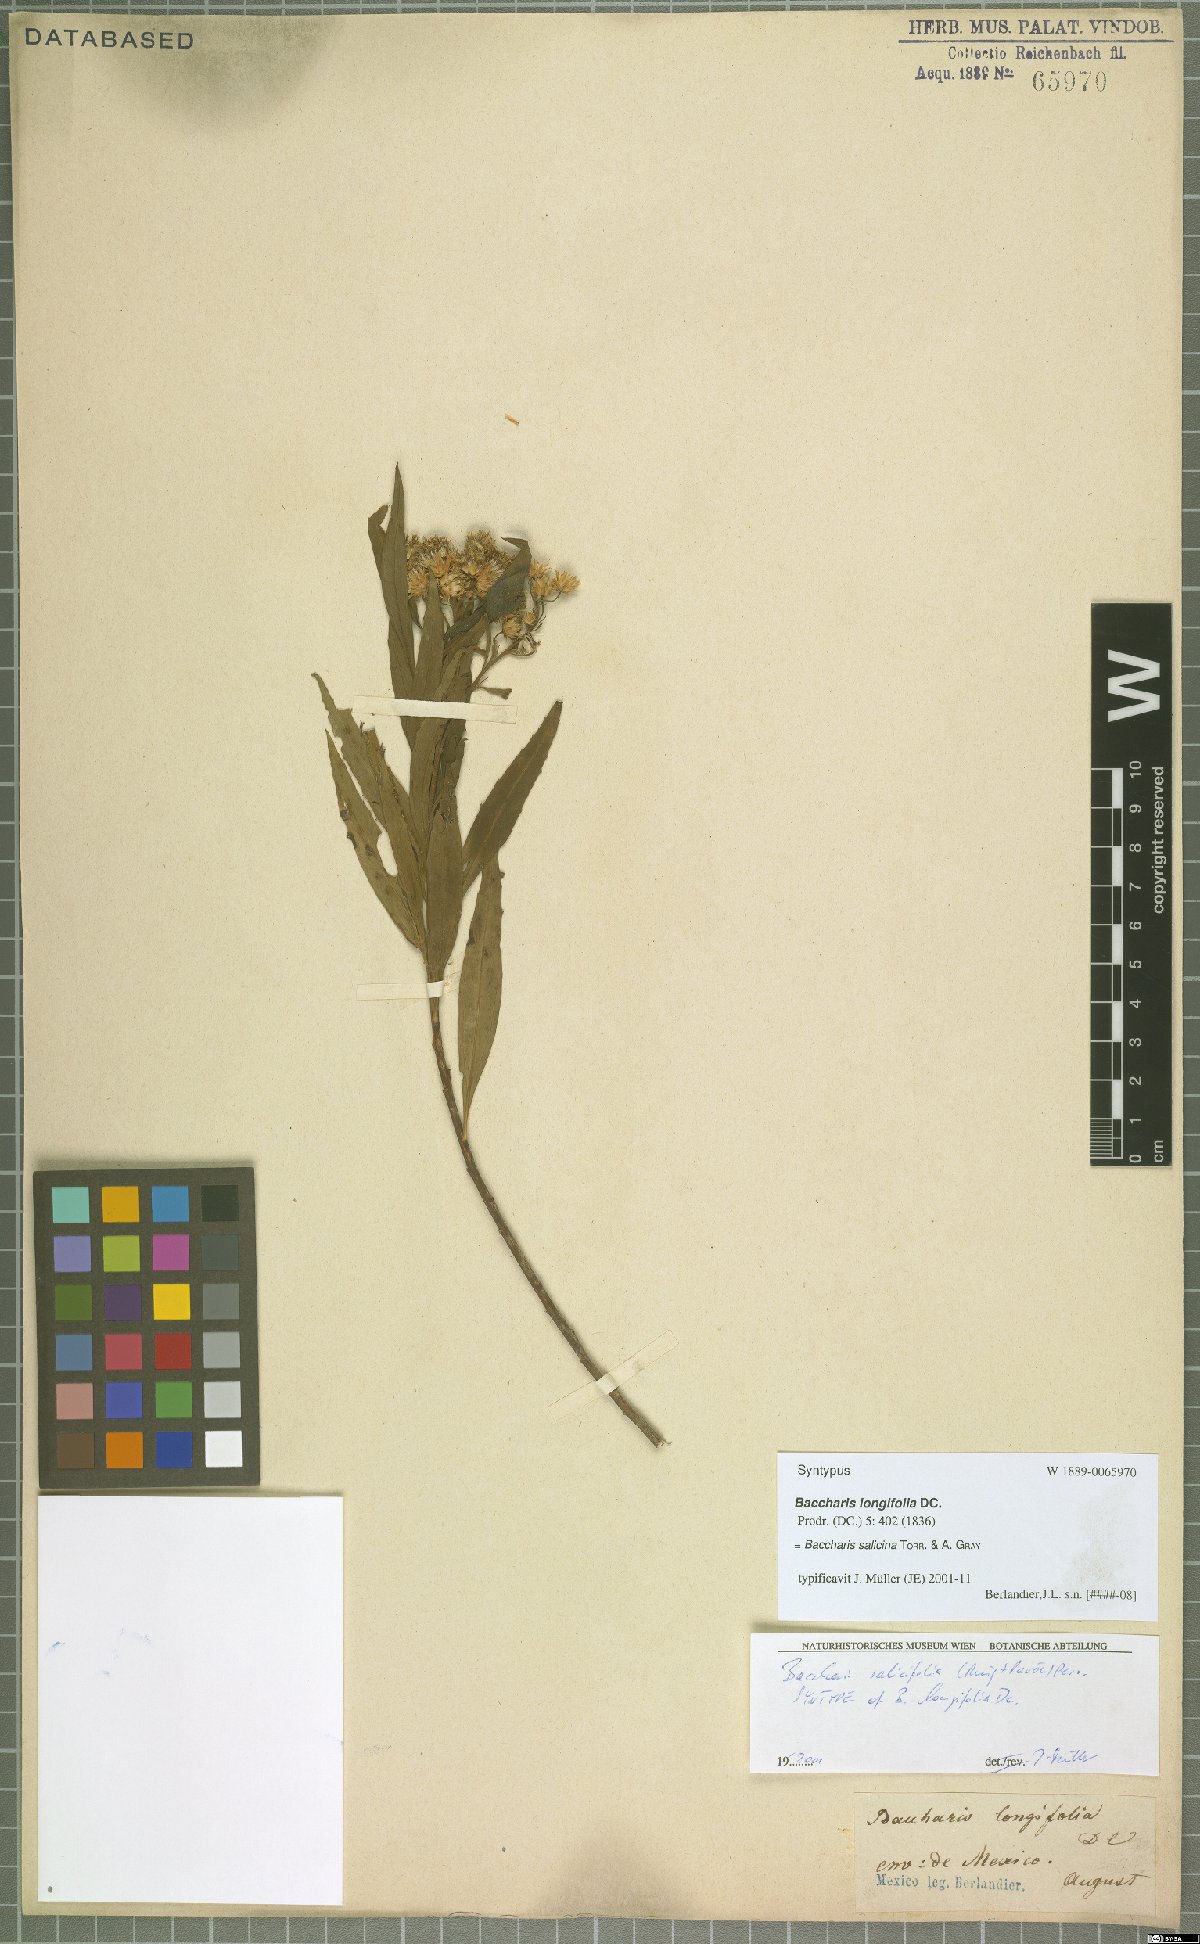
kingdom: Plantae
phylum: Tracheophyta
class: Magnoliopsida
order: Asterales
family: Asteraceae
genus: Baccharis
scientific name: Baccharis salicina
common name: Willow baccharis
